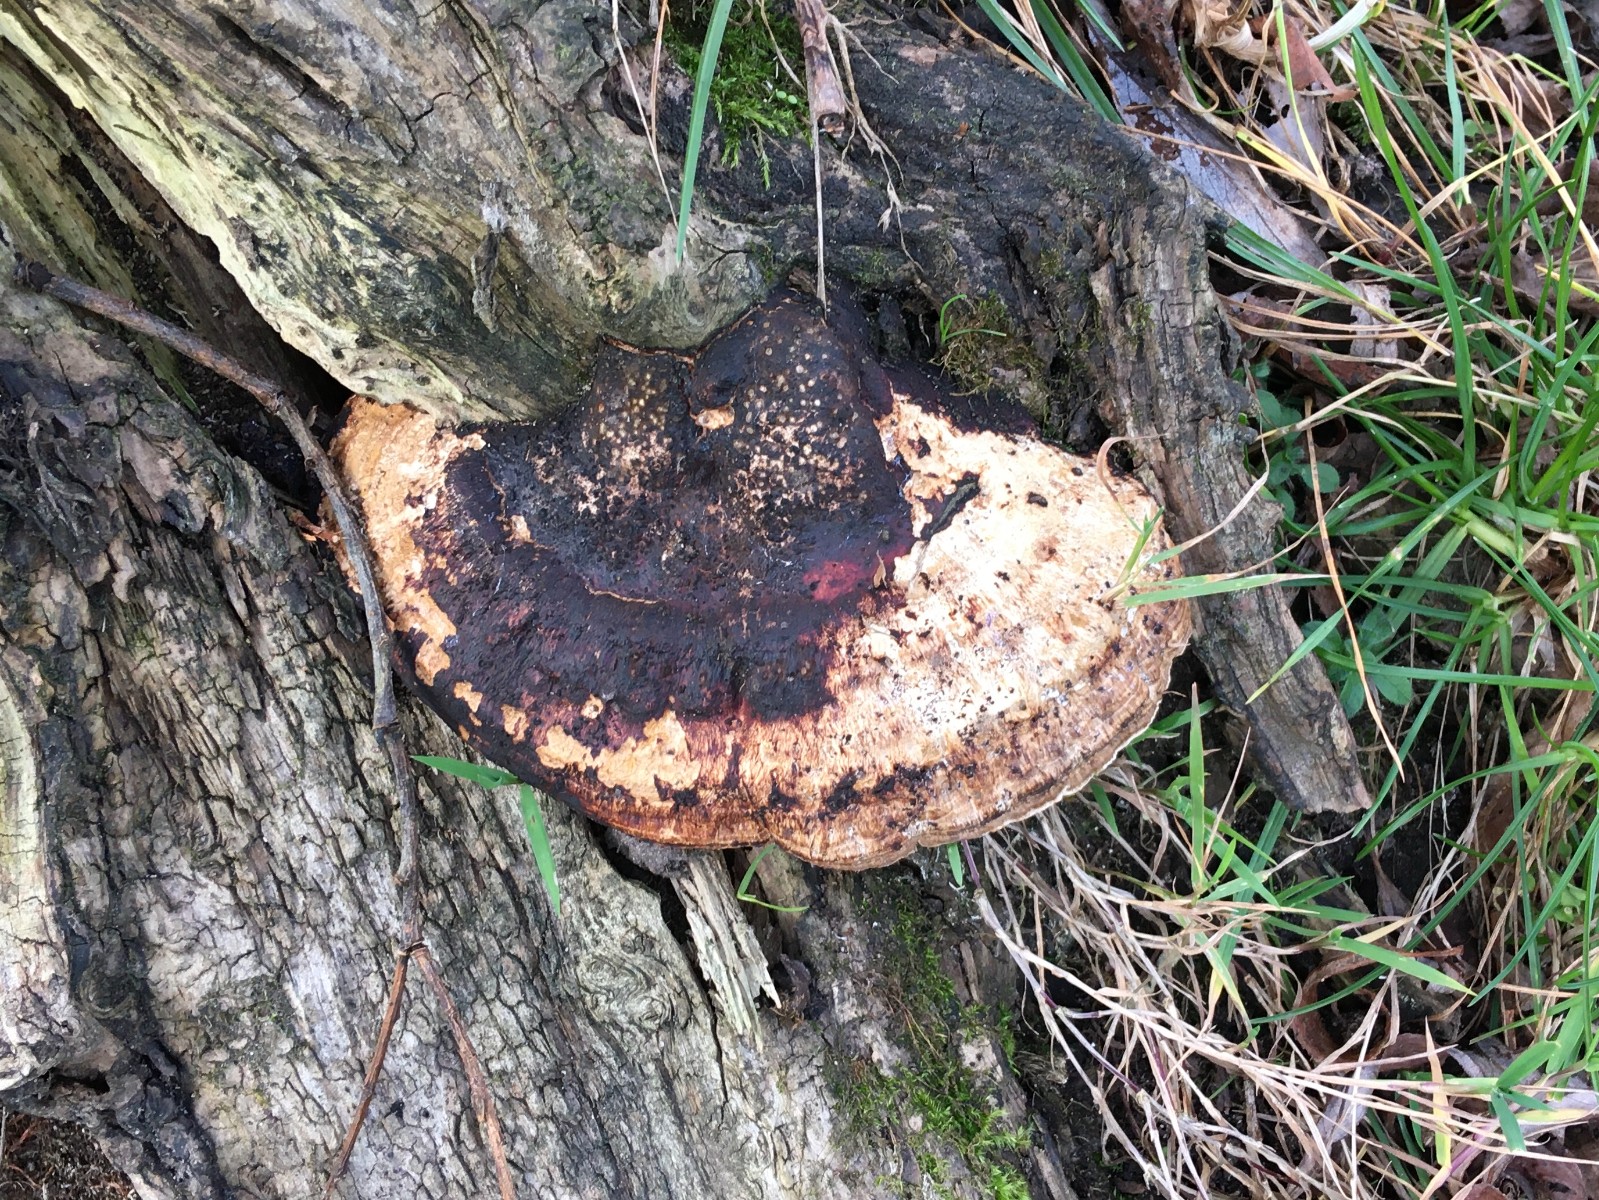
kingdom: Fungi
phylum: Basidiomycota
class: Agaricomycetes
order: Polyporales
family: Polyporaceae
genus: Daedaleopsis
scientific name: Daedaleopsis confragosa
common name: rødmende læderporesvamp
